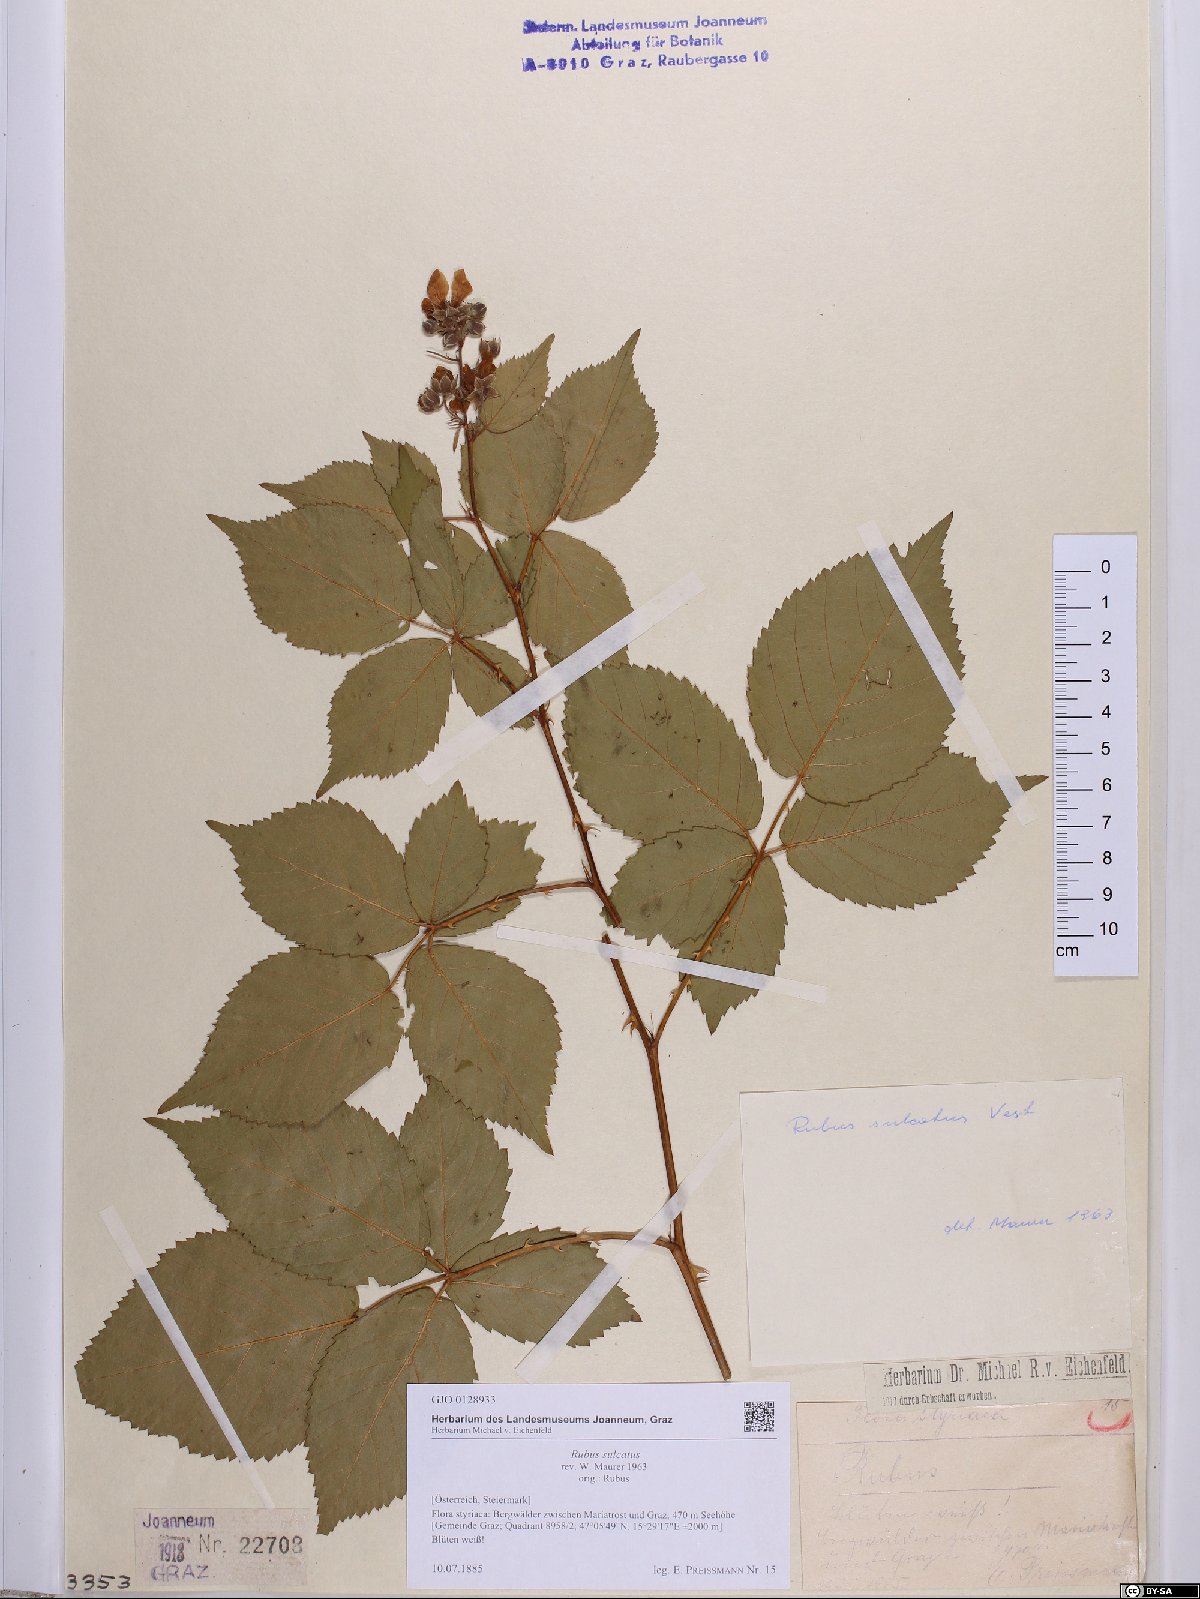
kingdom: Plantae
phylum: Tracheophyta
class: Magnoliopsida
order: Rosales
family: Rosaceae
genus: Rubus
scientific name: Rubus sulcatus
